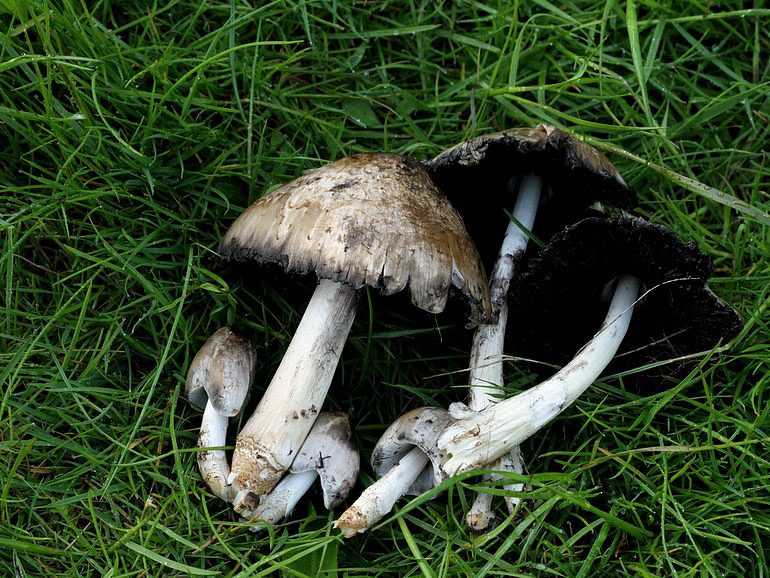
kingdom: Fungi
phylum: Basidiomycota
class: Agaricomycetes
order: Agaricales
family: Psathyrellaceae
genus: Coprinopsis
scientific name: Coprinopsis atramentaria
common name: almindelig blækhat
